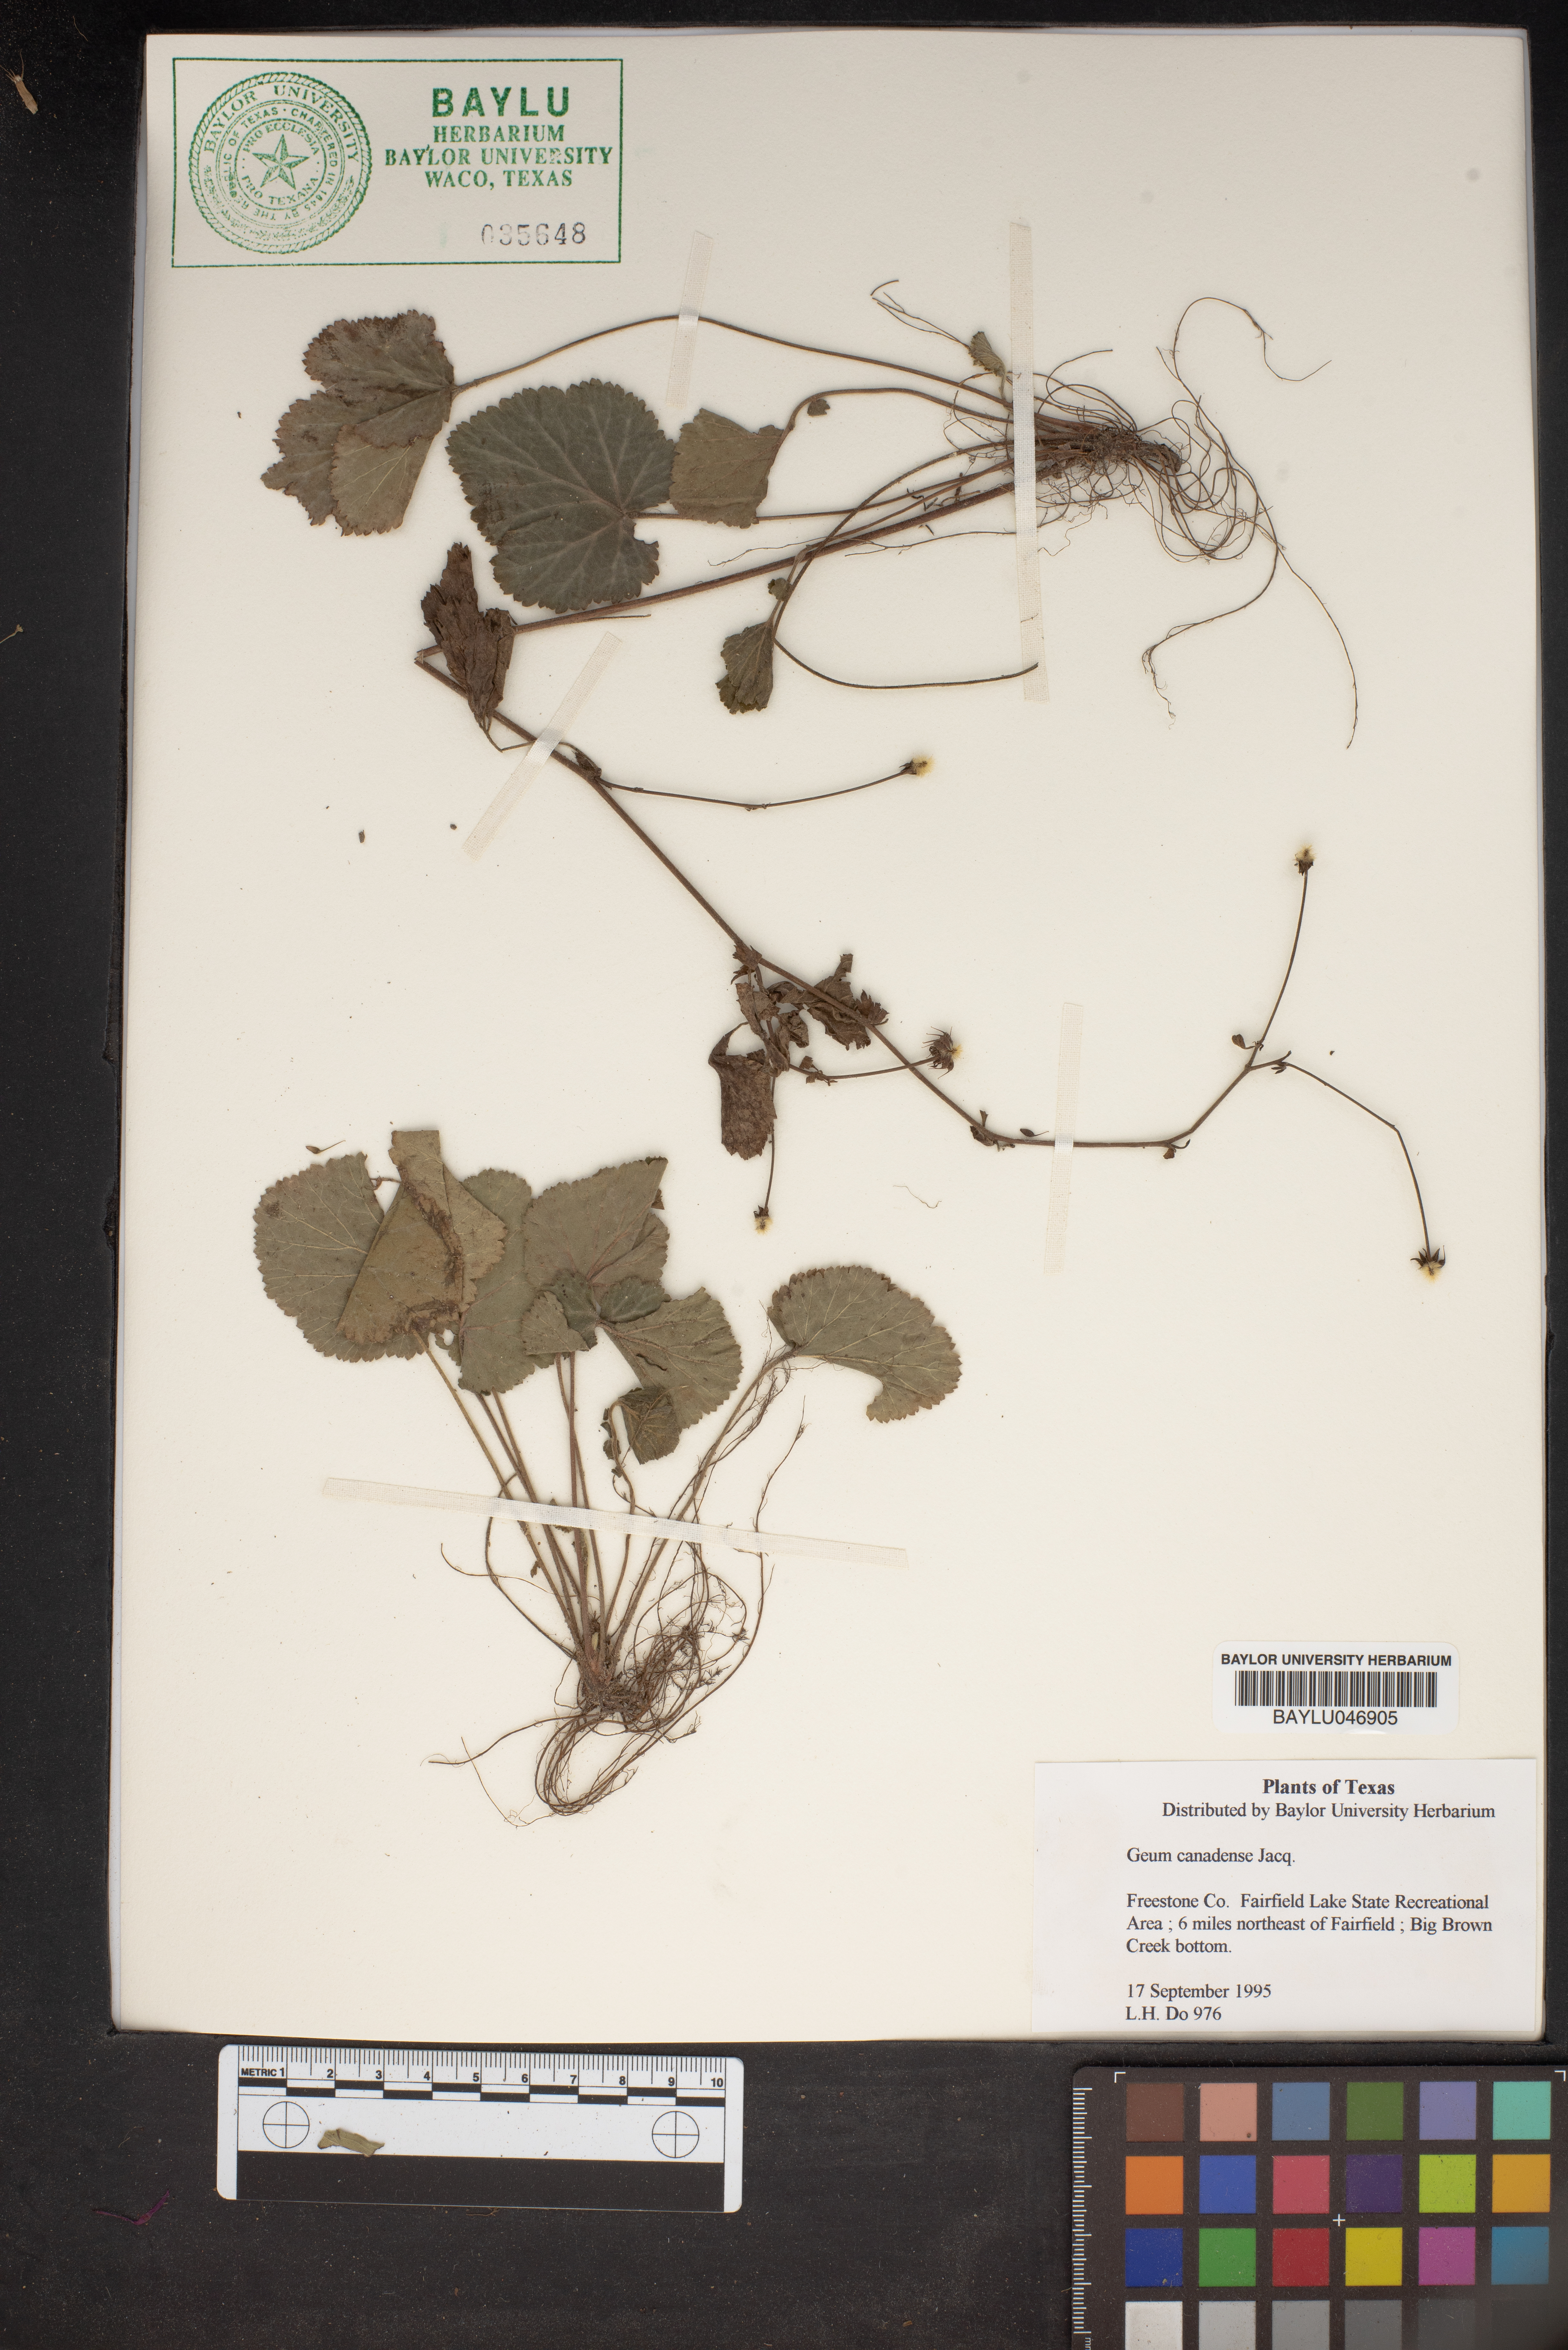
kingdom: Plantae
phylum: Tracheophyta
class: Magnoliopsida
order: Rosales
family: Rosaceae
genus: Geum
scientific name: Geum canadense
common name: White avens
